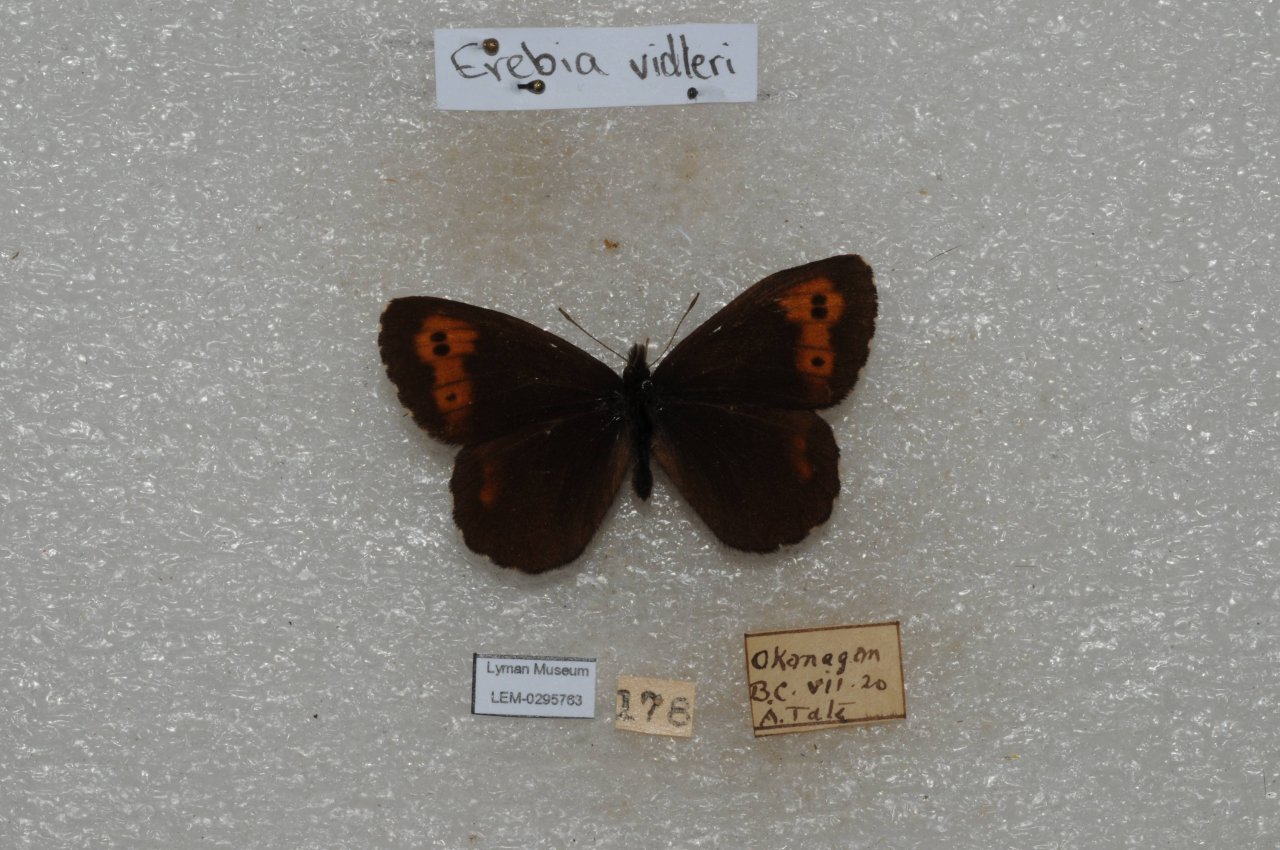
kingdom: Animalia
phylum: Arthropoda
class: Insecta
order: Lepidoptera
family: Nymphalidae
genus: Erebia
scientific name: Erebia vidleri
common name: Vidler's Alpine
